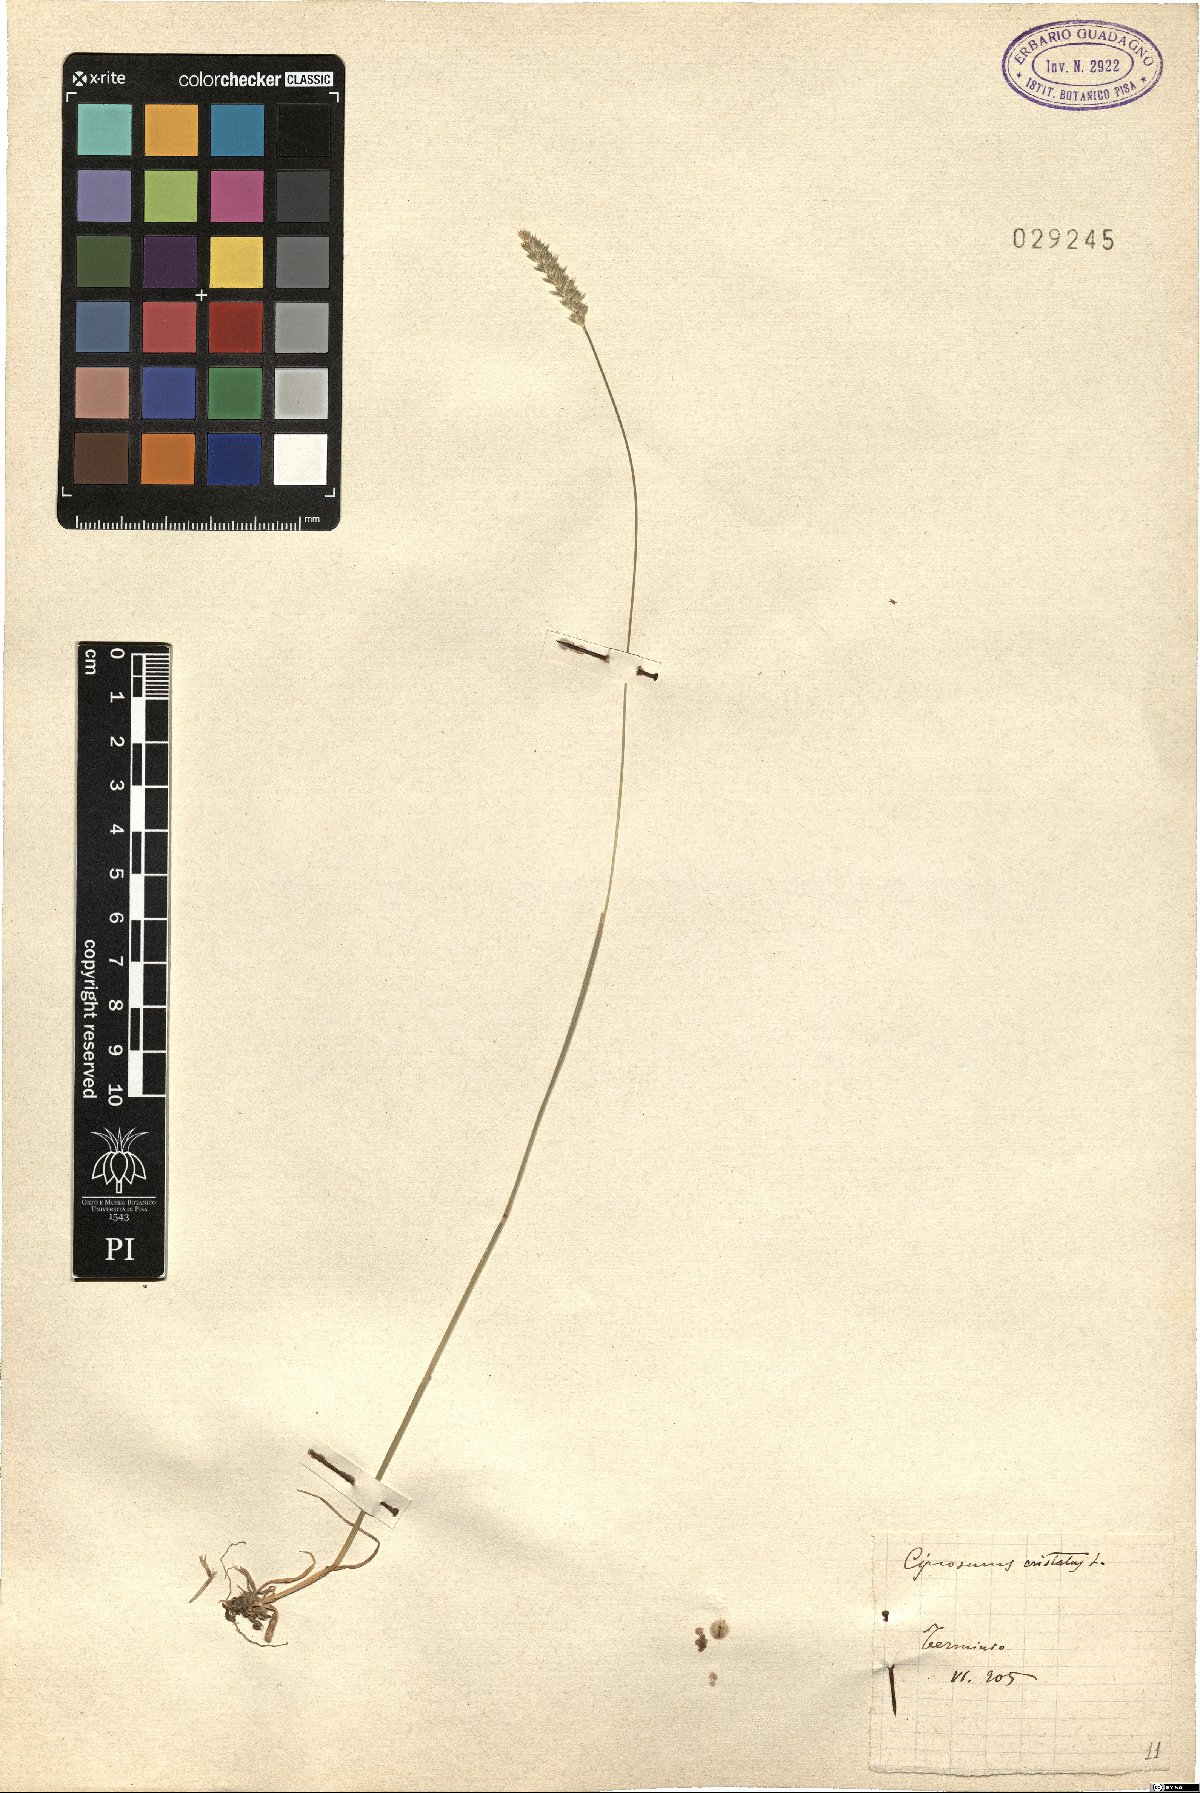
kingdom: Plantae
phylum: Tracheophyta
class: Liliopsida
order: Poales
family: Poaceae
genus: Cynosurus
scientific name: Cynosurus cristatus
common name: Crested dog's-tail
